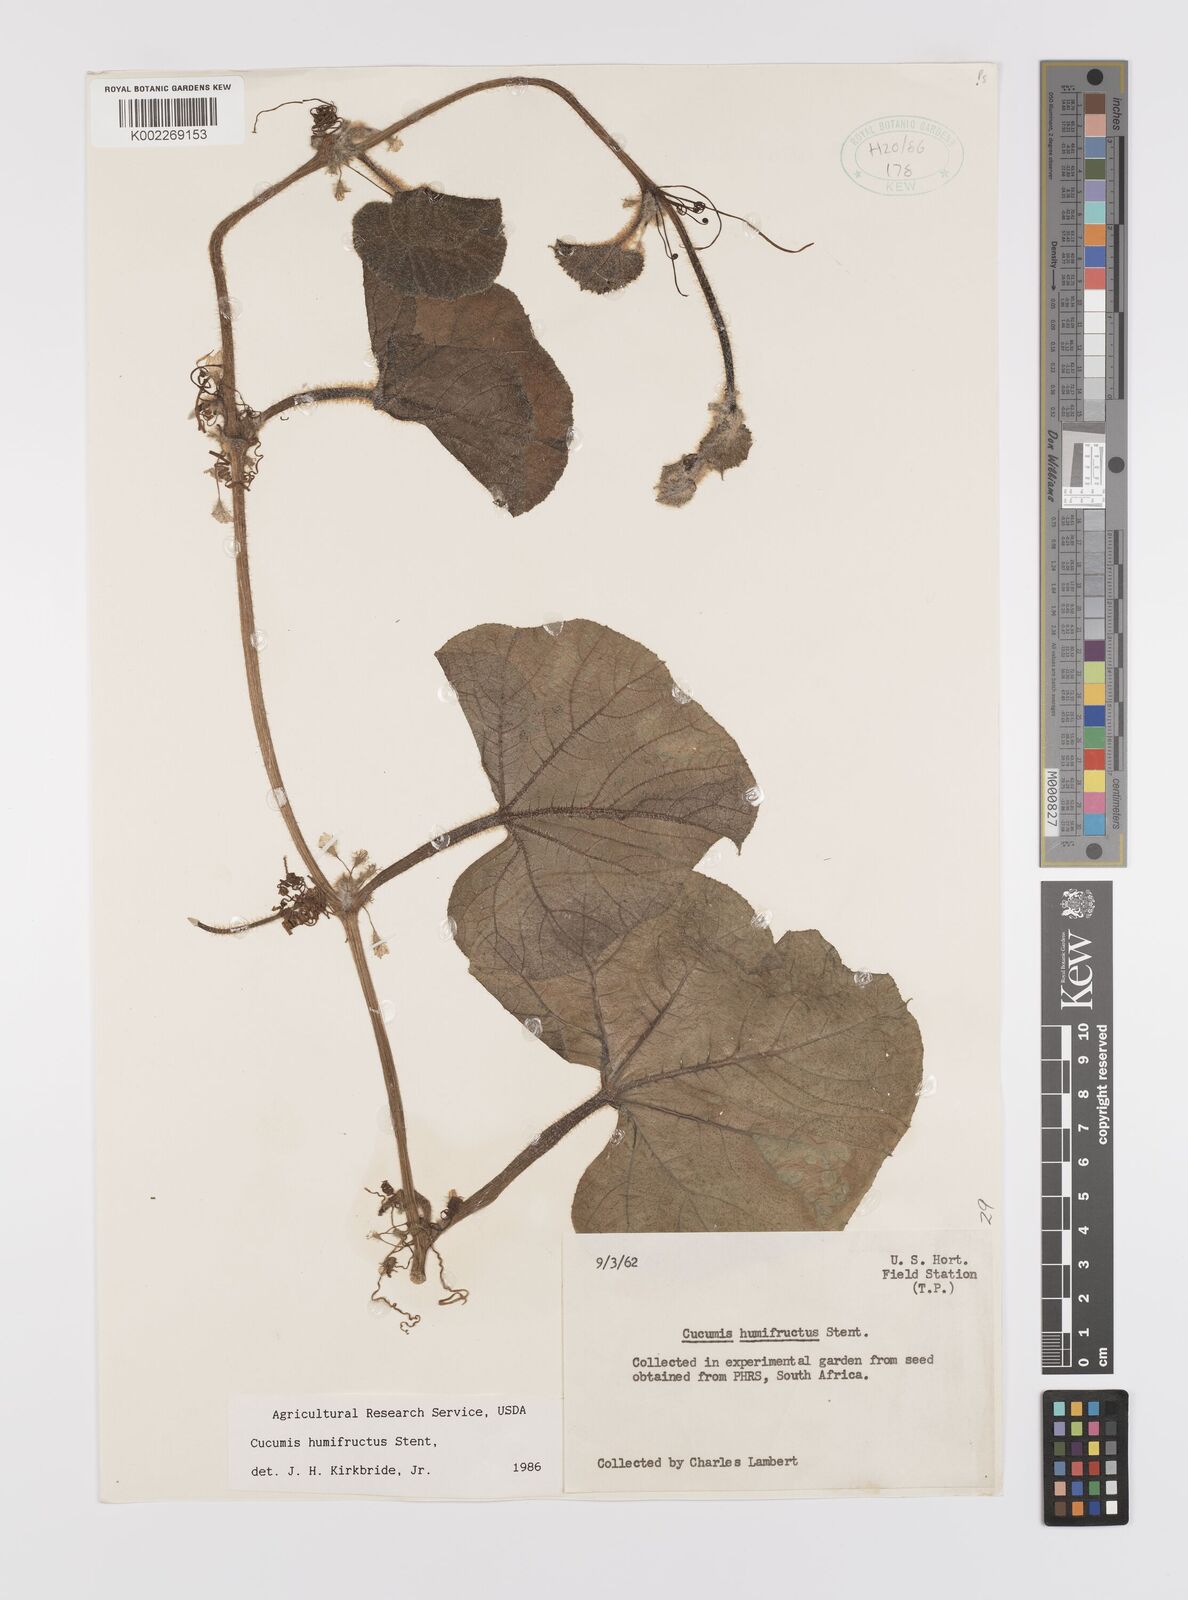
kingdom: Plantae
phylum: Tracheophyta
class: Magnoliopsida
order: Cucurbitales
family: Cucurbitaceae
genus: Cucumis
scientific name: Cucumis humofructus
